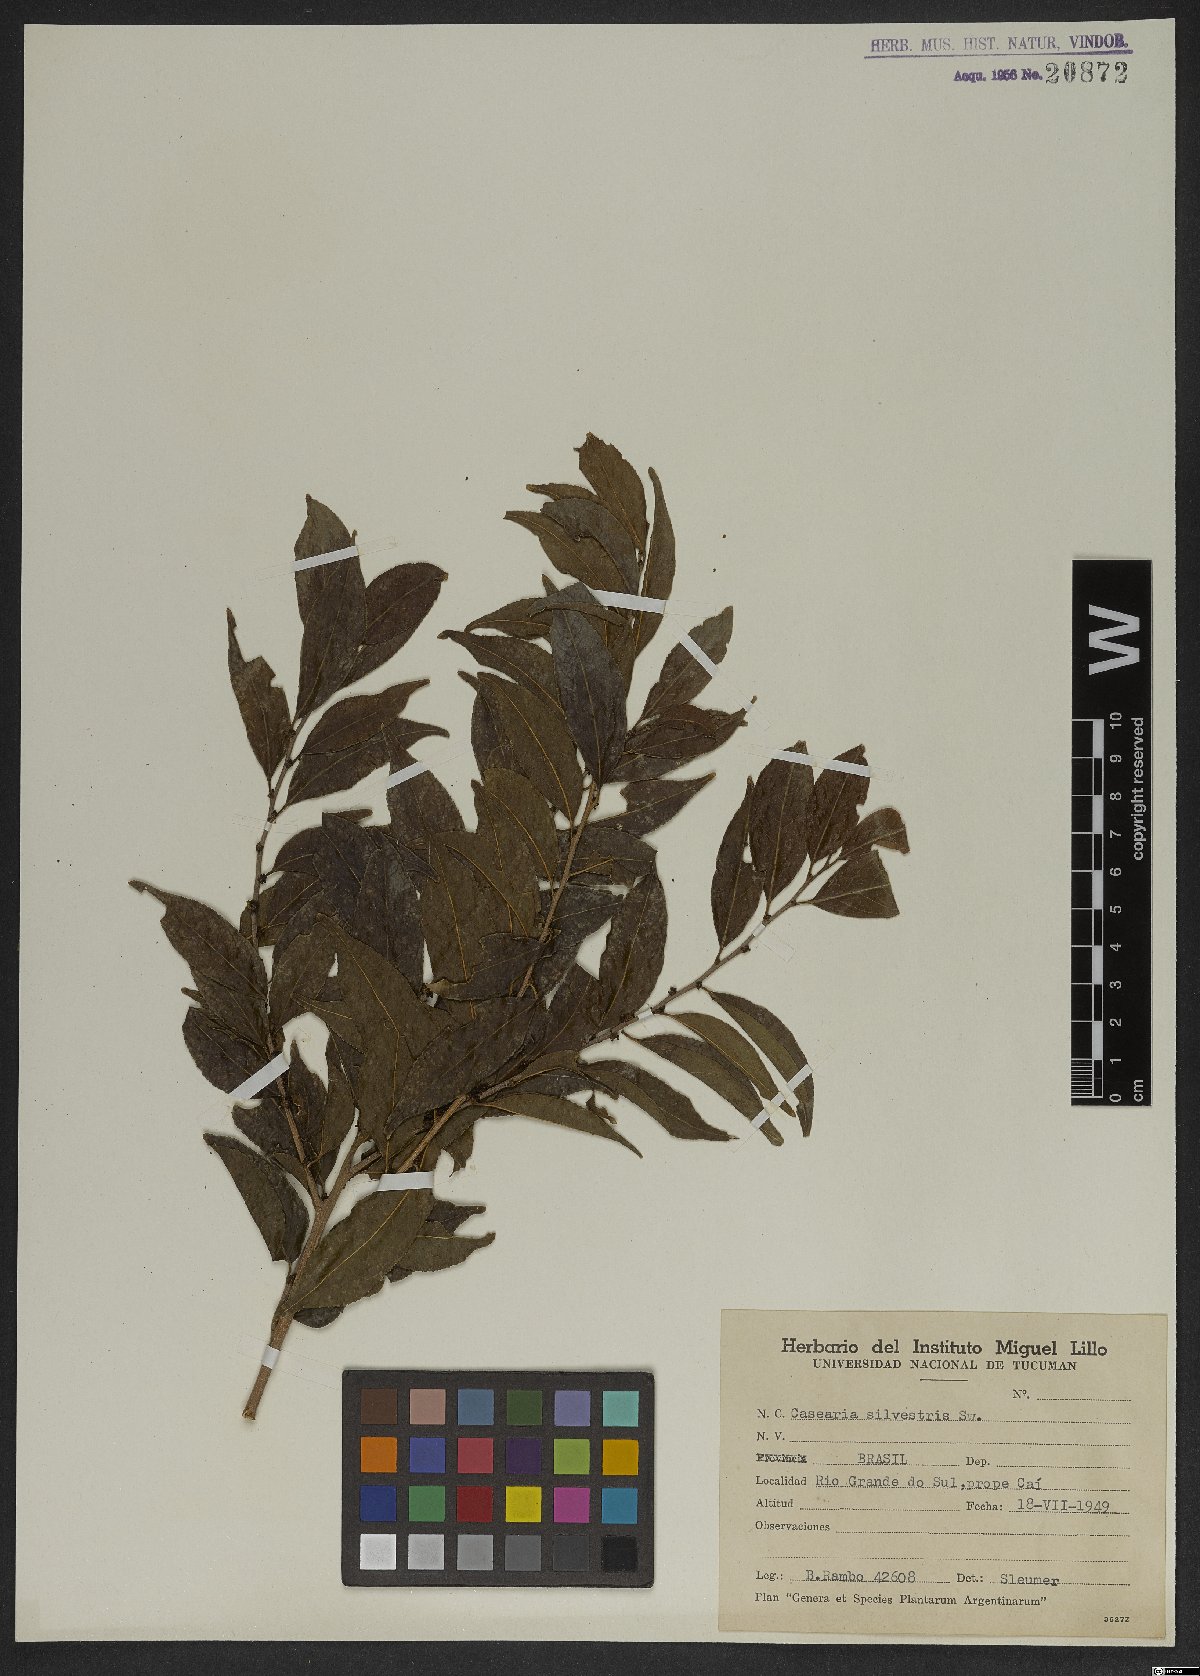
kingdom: Plantae
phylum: Tracheophyta
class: Magnoliopsida
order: Malpighiales
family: Salicaceae
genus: Casearia
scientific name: Casearia sylvestris
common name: Wild sage
